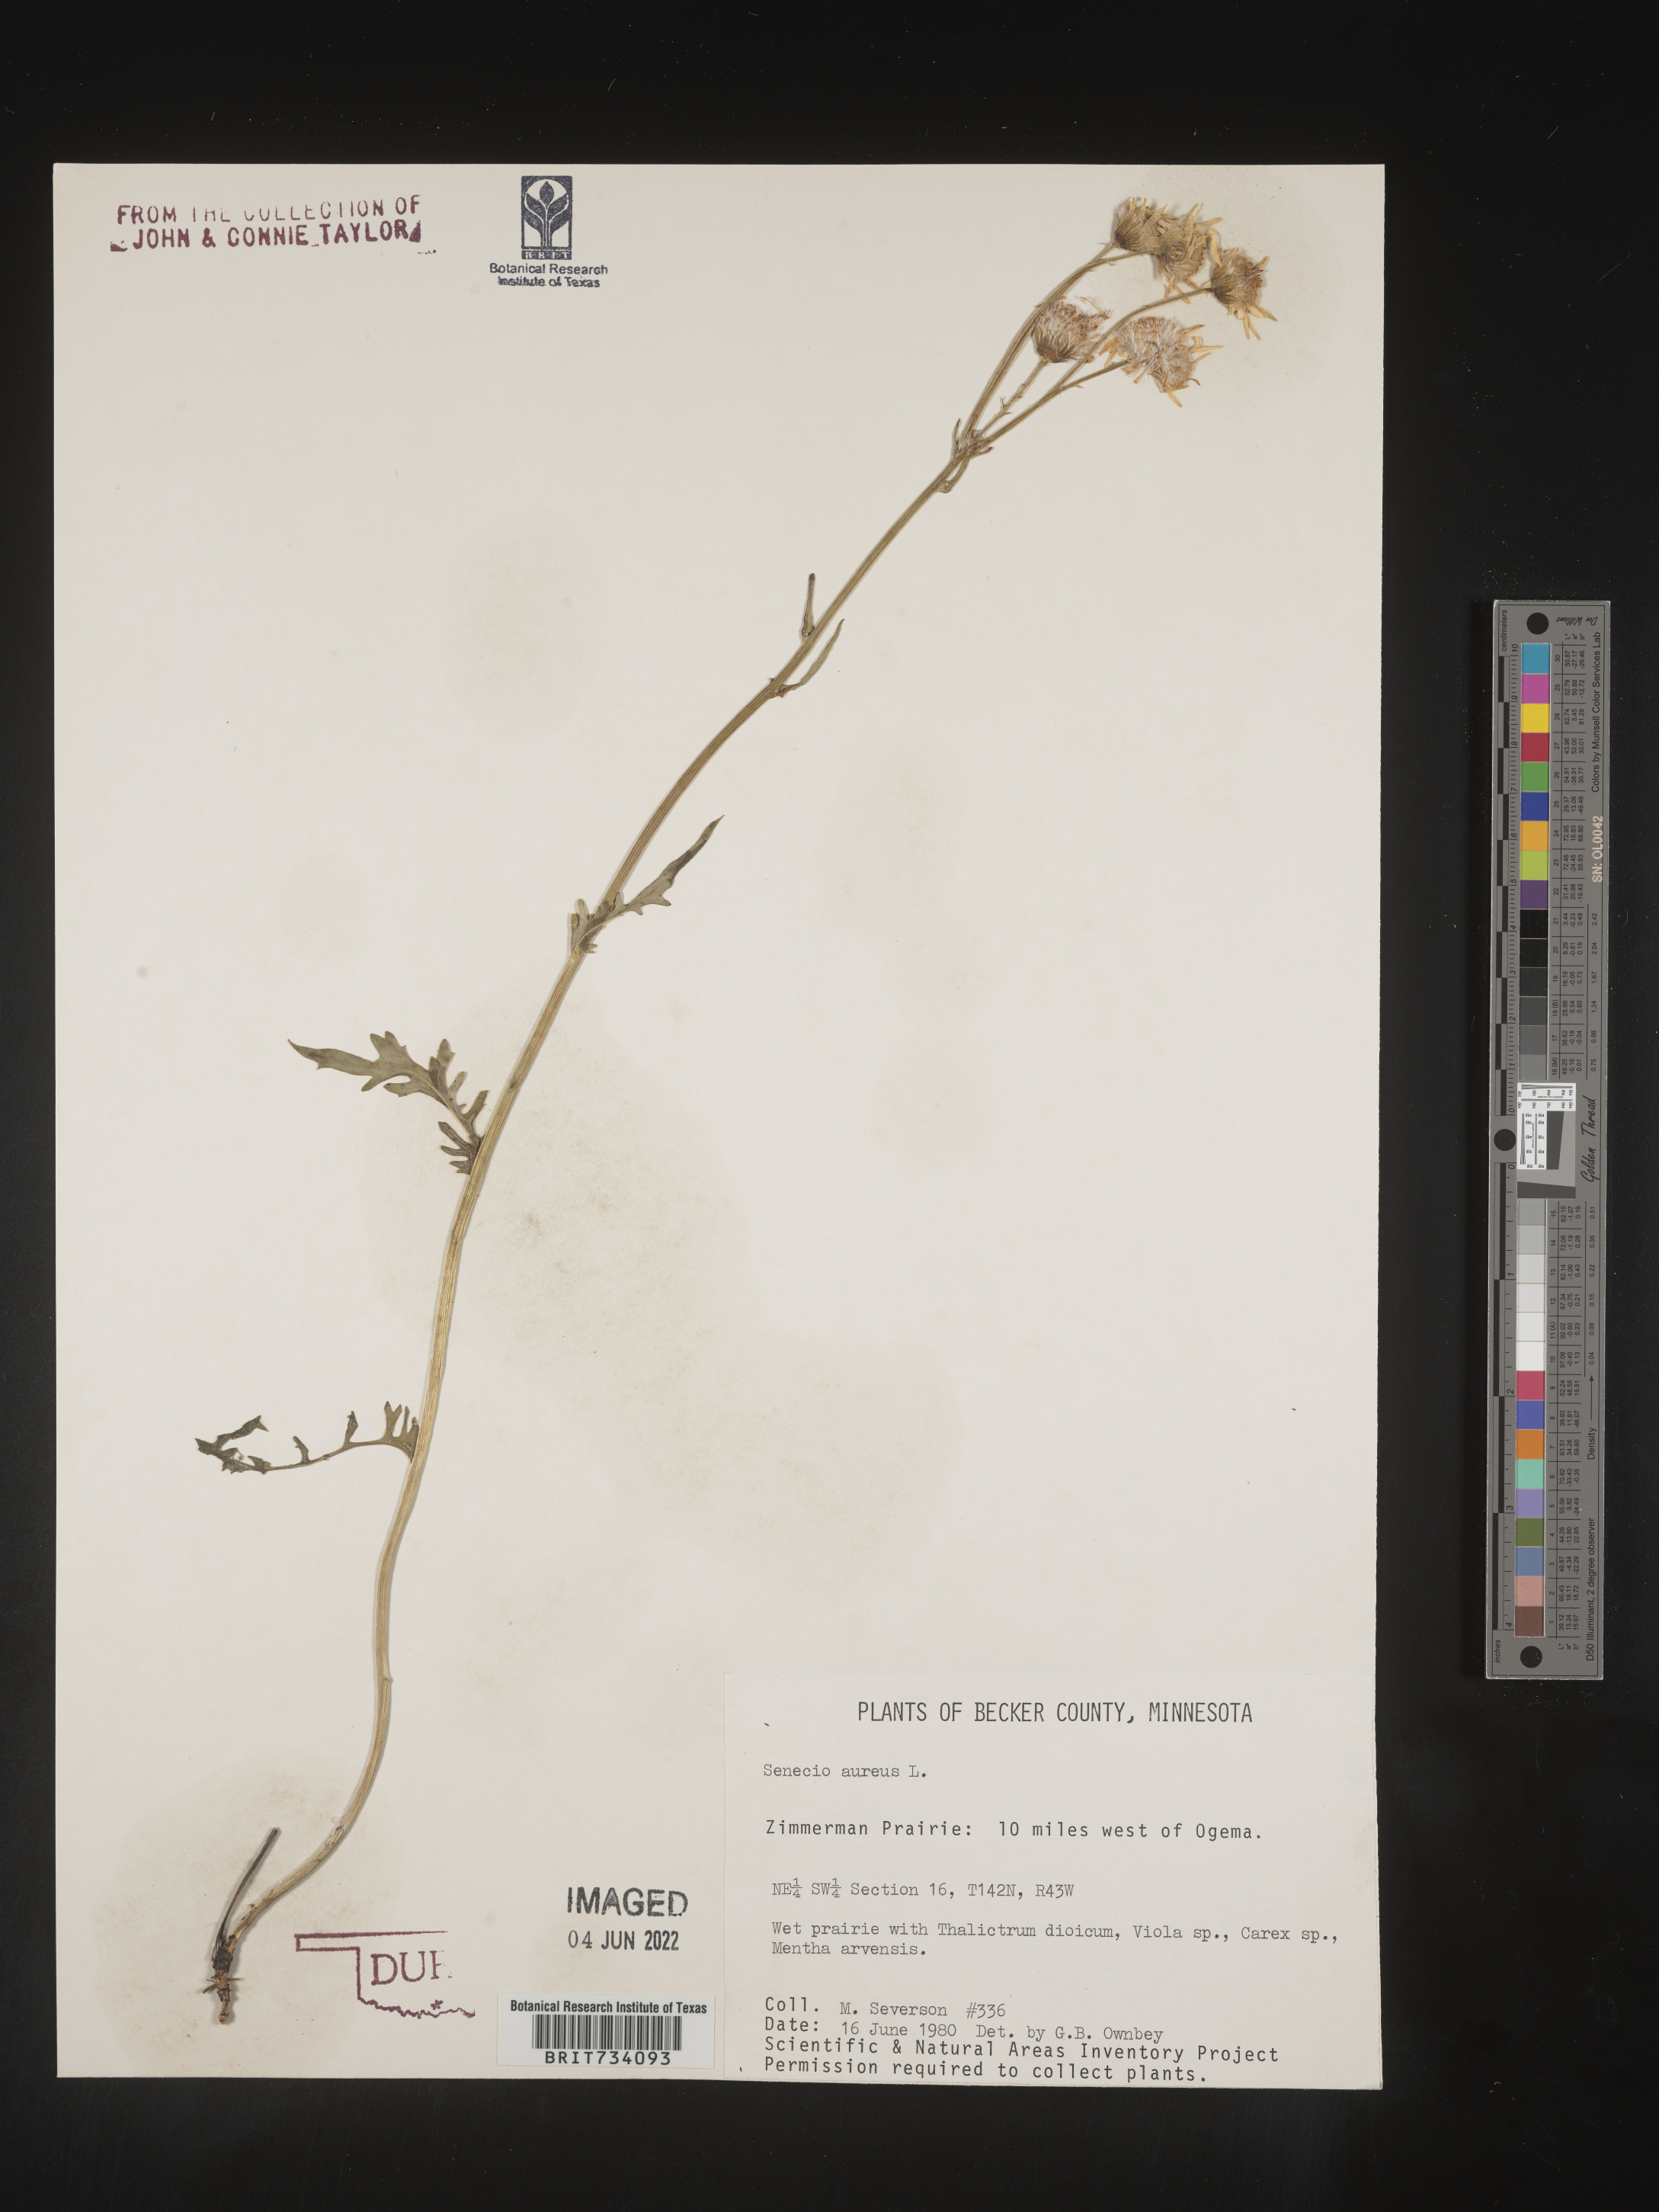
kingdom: Plantae
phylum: Tracheophyta
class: Magnoliopsida
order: Asterales
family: Asteraceae
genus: Packera
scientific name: Packera aurea
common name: Golden groundsel
